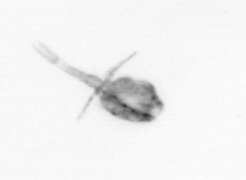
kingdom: Animalia
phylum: Arthropoda
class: Copepoda
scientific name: Copepoda
